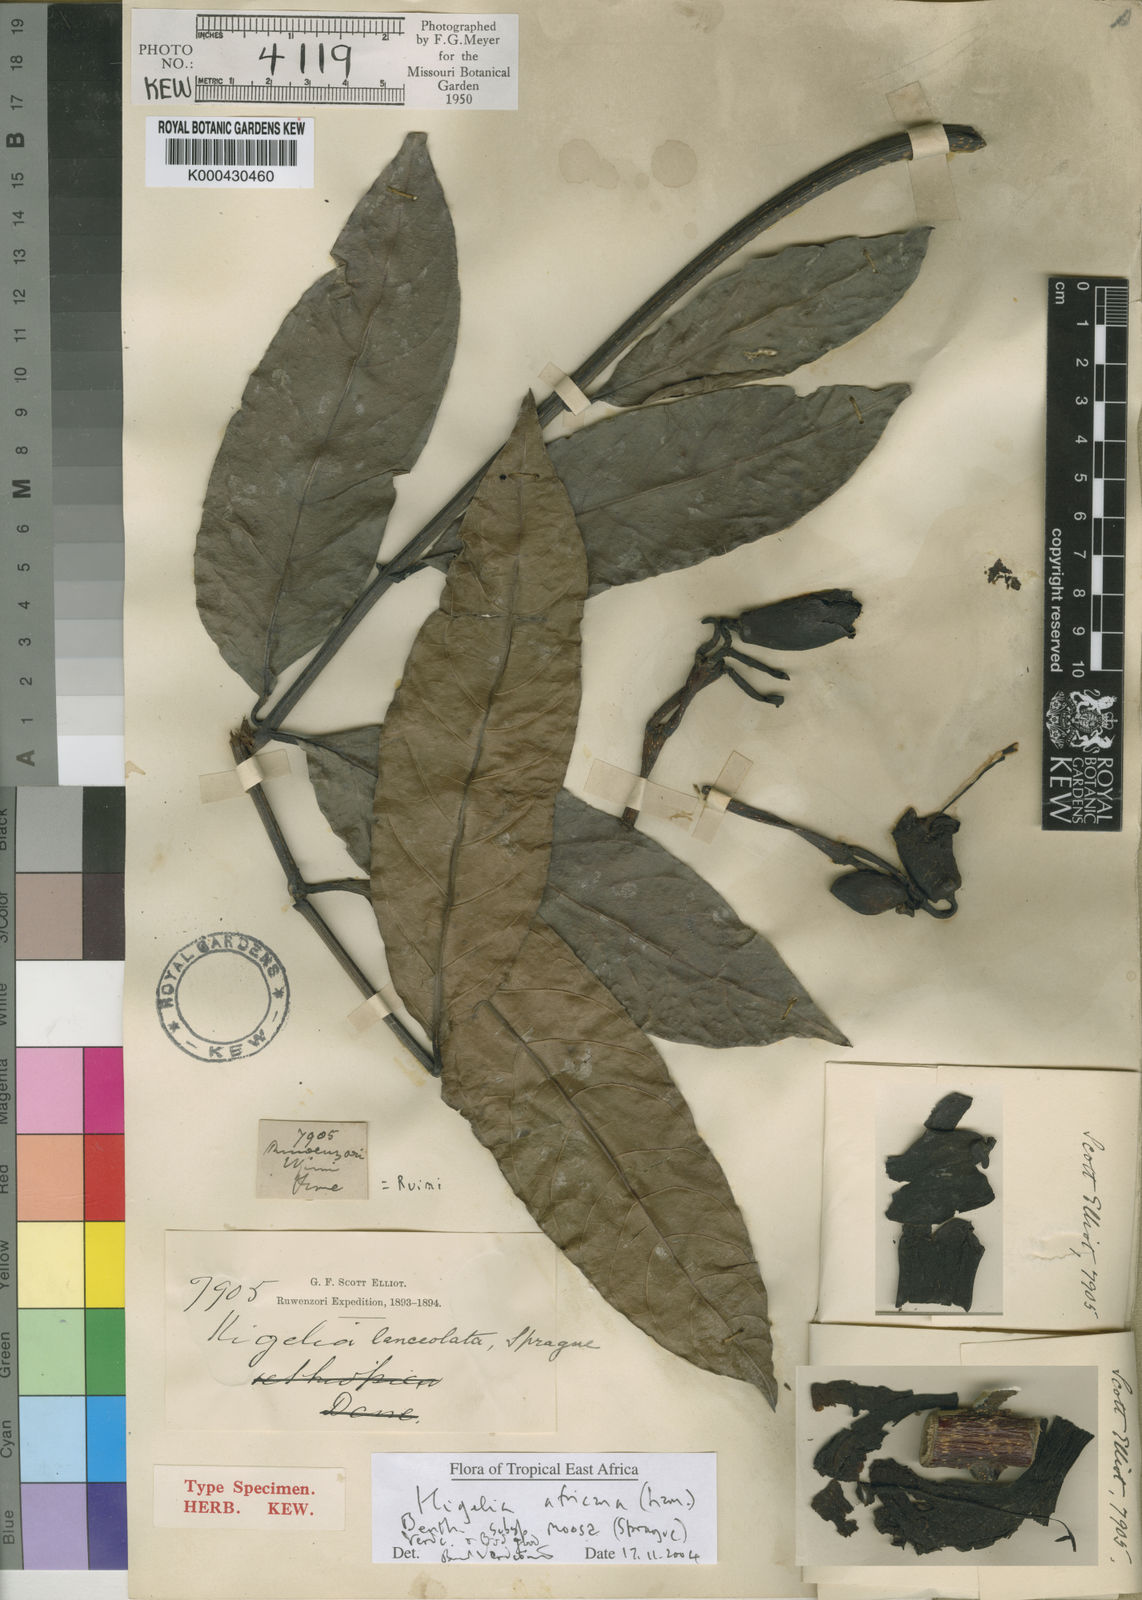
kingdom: Plantae
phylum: Tracheophyta
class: Magnoliopsida
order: Lamiales
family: Bignoniaceae
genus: Kigelia
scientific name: Kigelia africana
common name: Sausage tree
